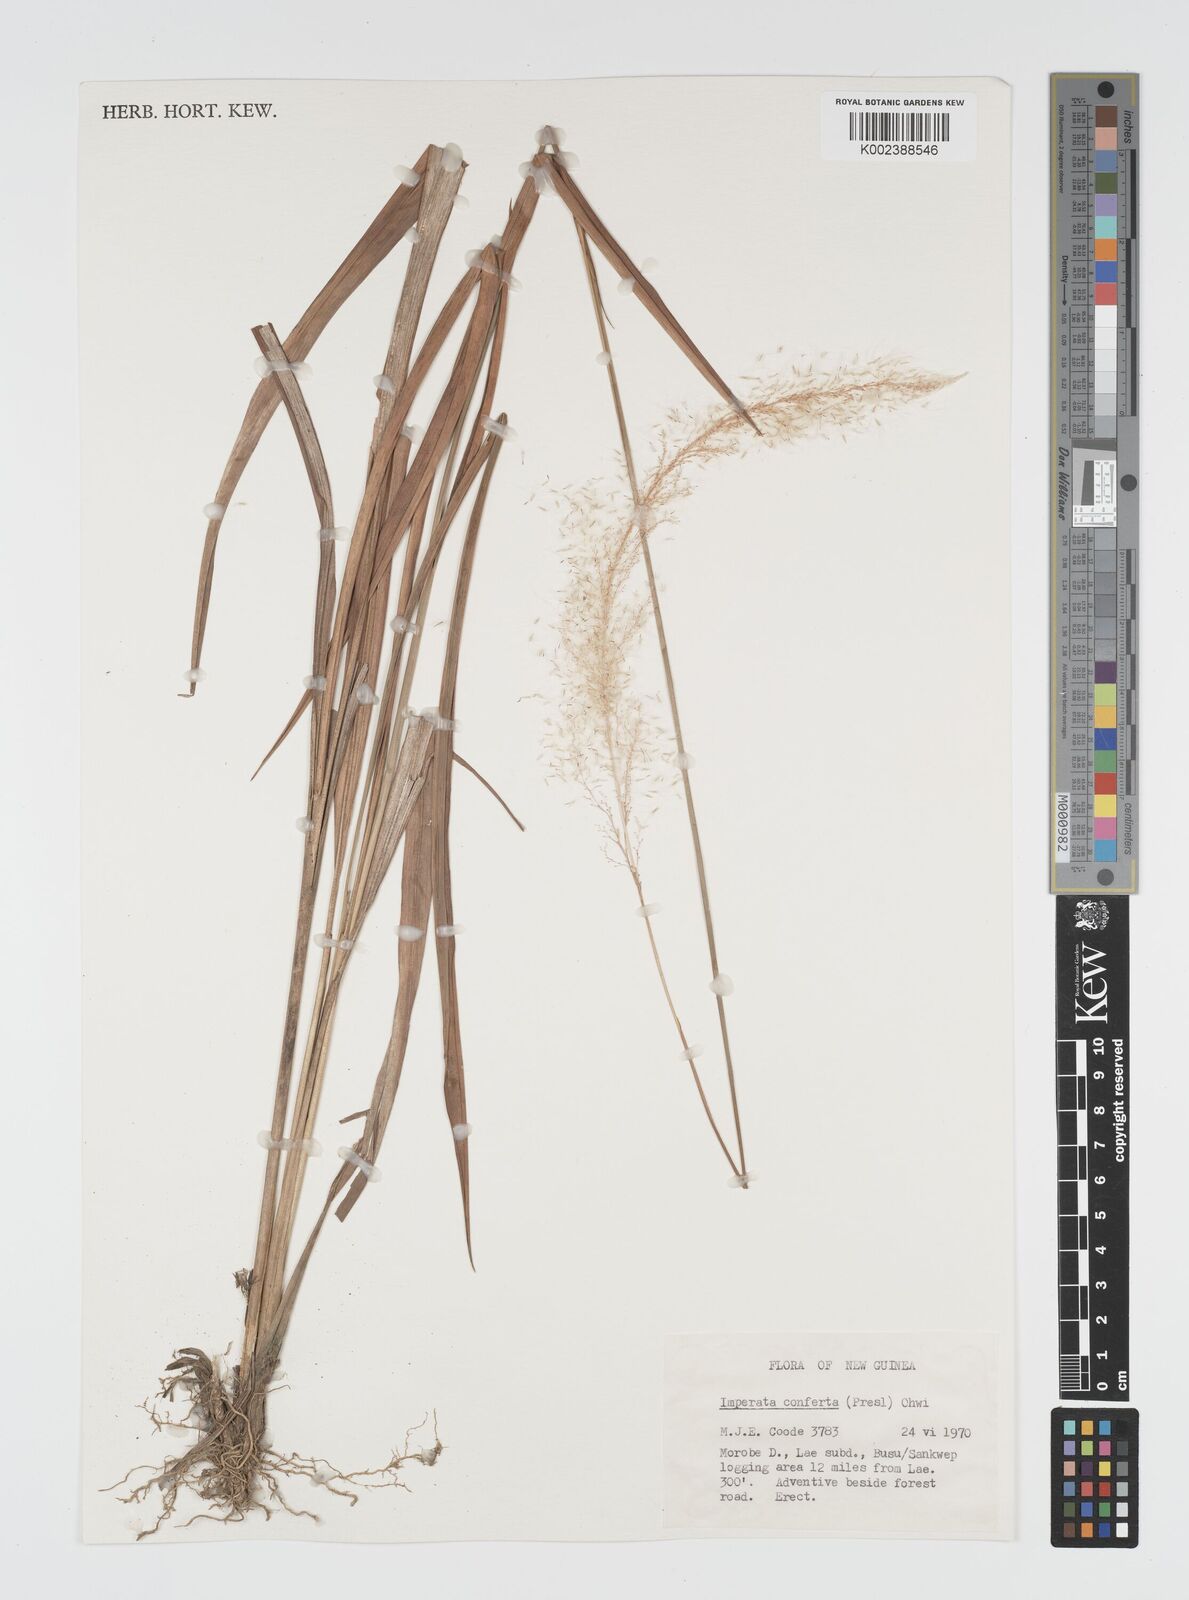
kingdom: Plantae
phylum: Tracheophyta
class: Liliopsida
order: Poales
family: Poaceae
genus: Imperata
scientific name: Imperata conferta
